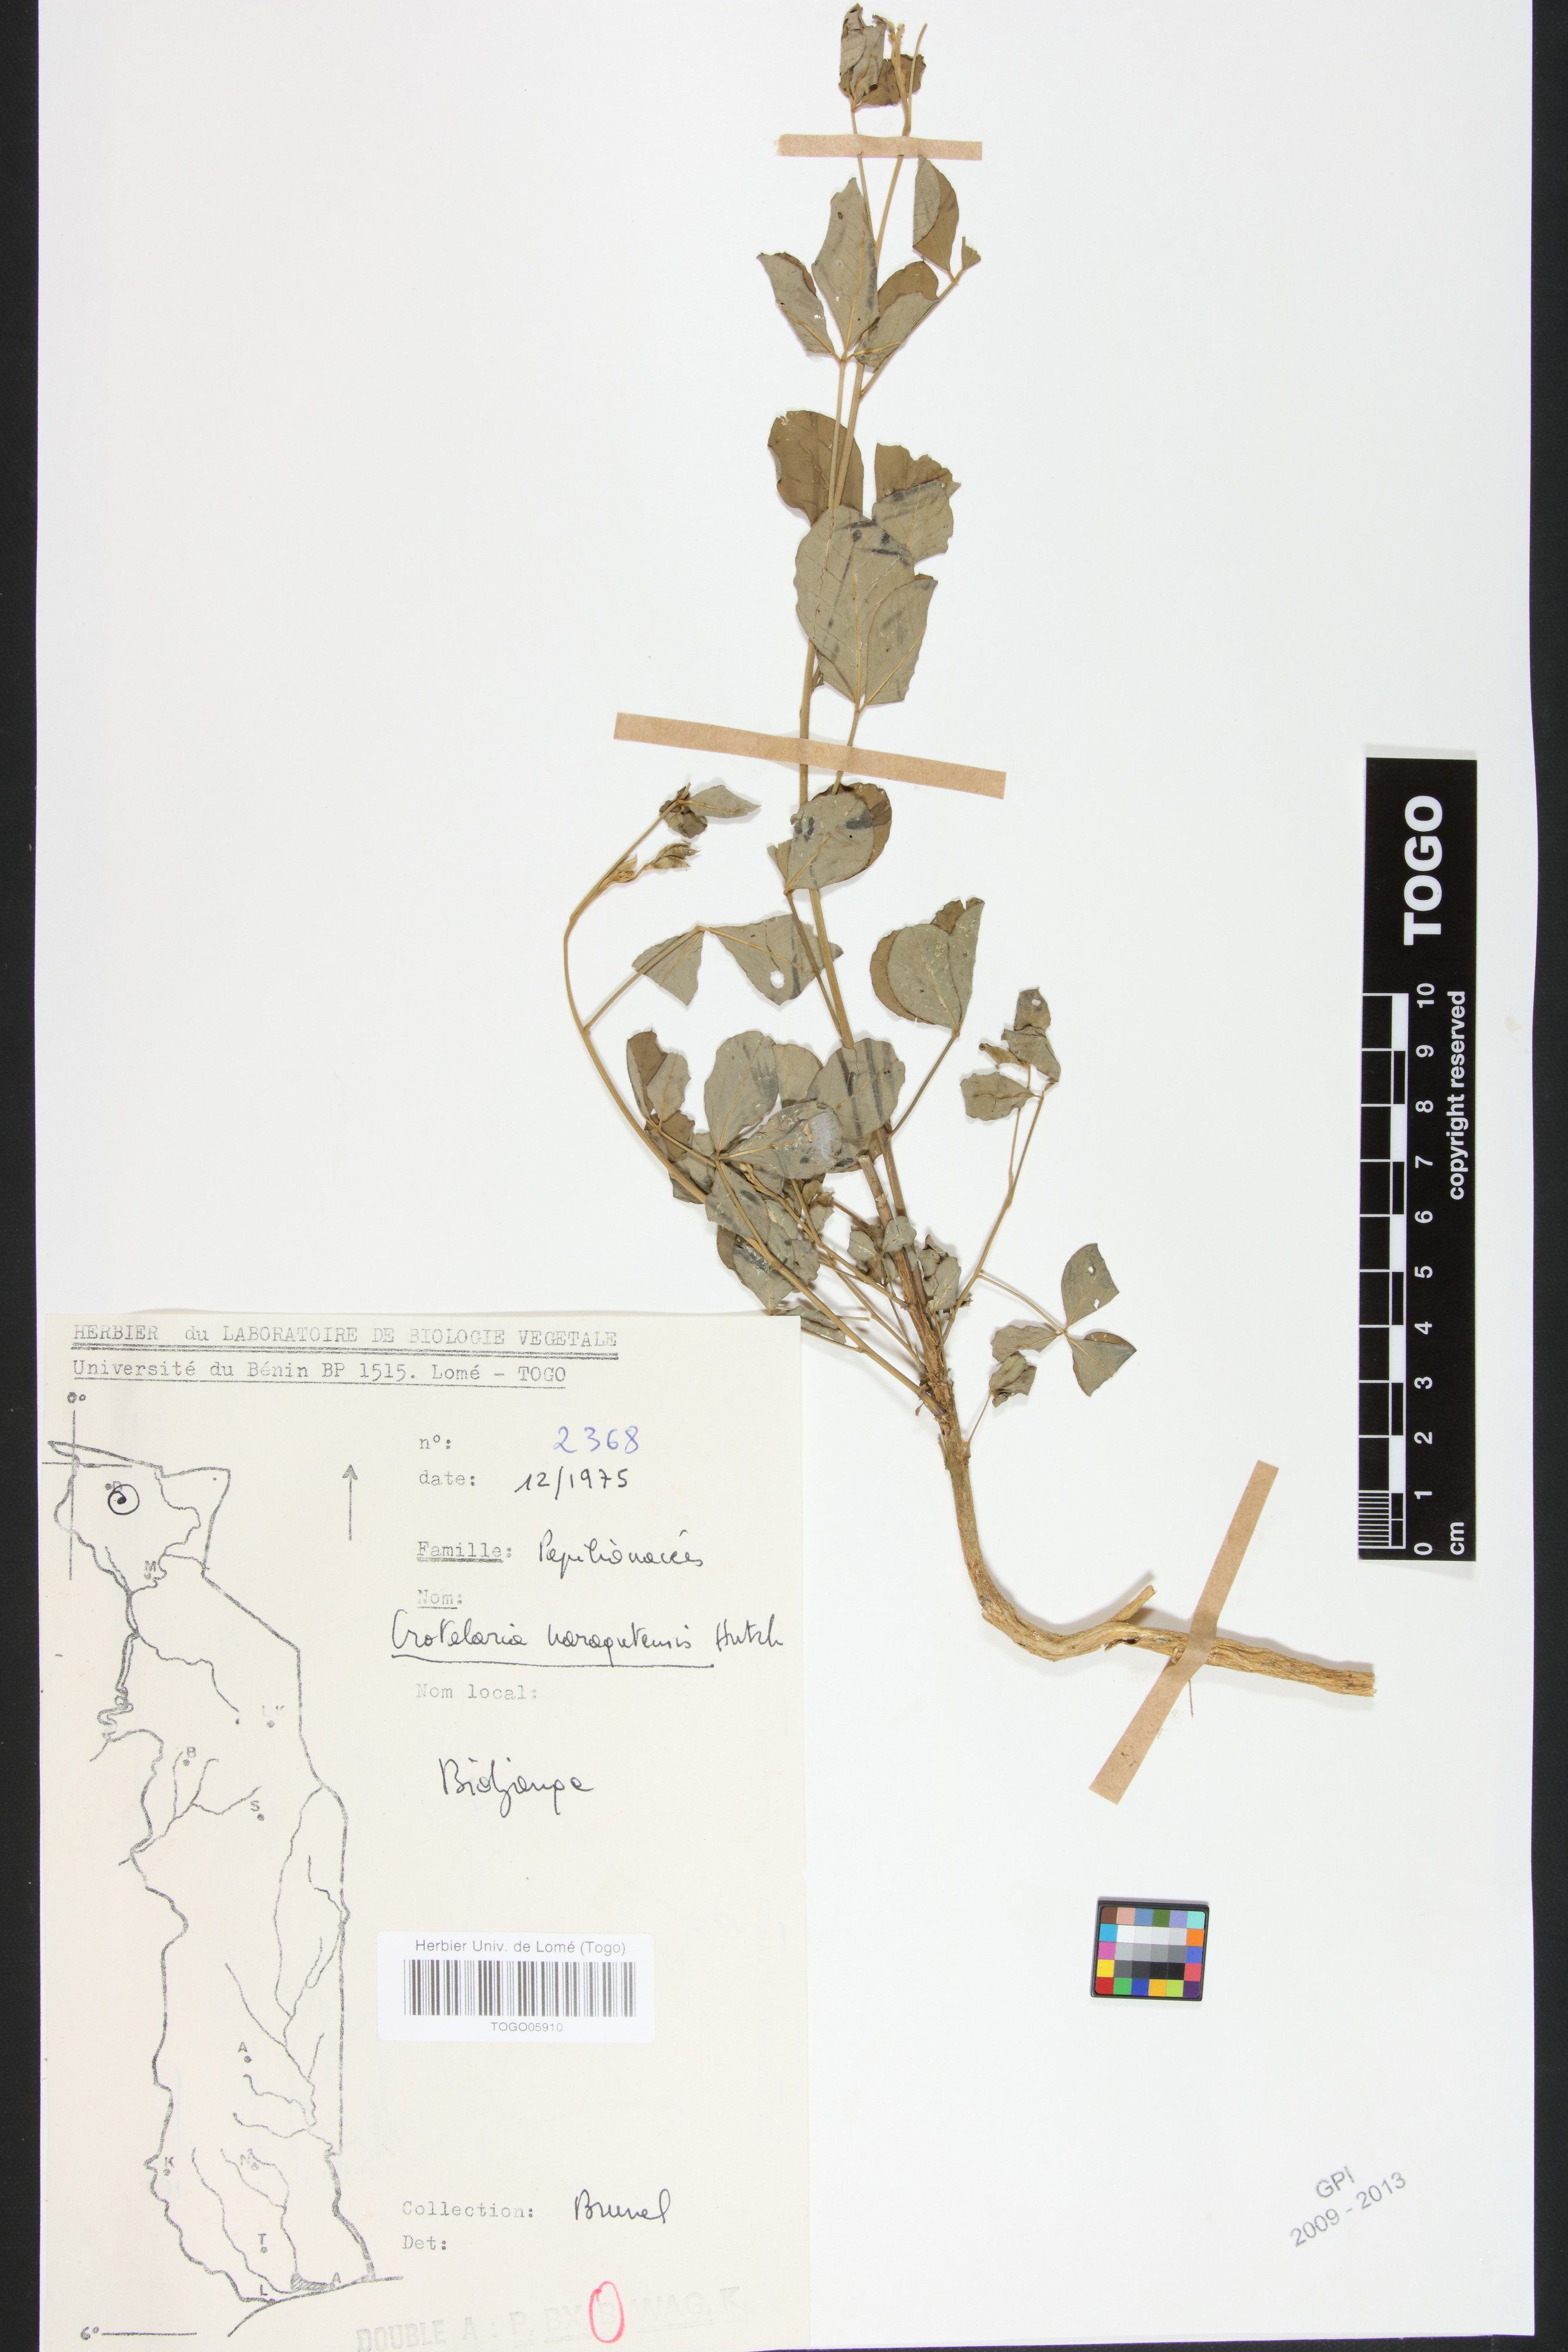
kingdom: Plantae
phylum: Tracheophyta
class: Magnoliopsida
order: Fabales
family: Fabaceae
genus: Crotalaria
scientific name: Crotalaria naragutensis
